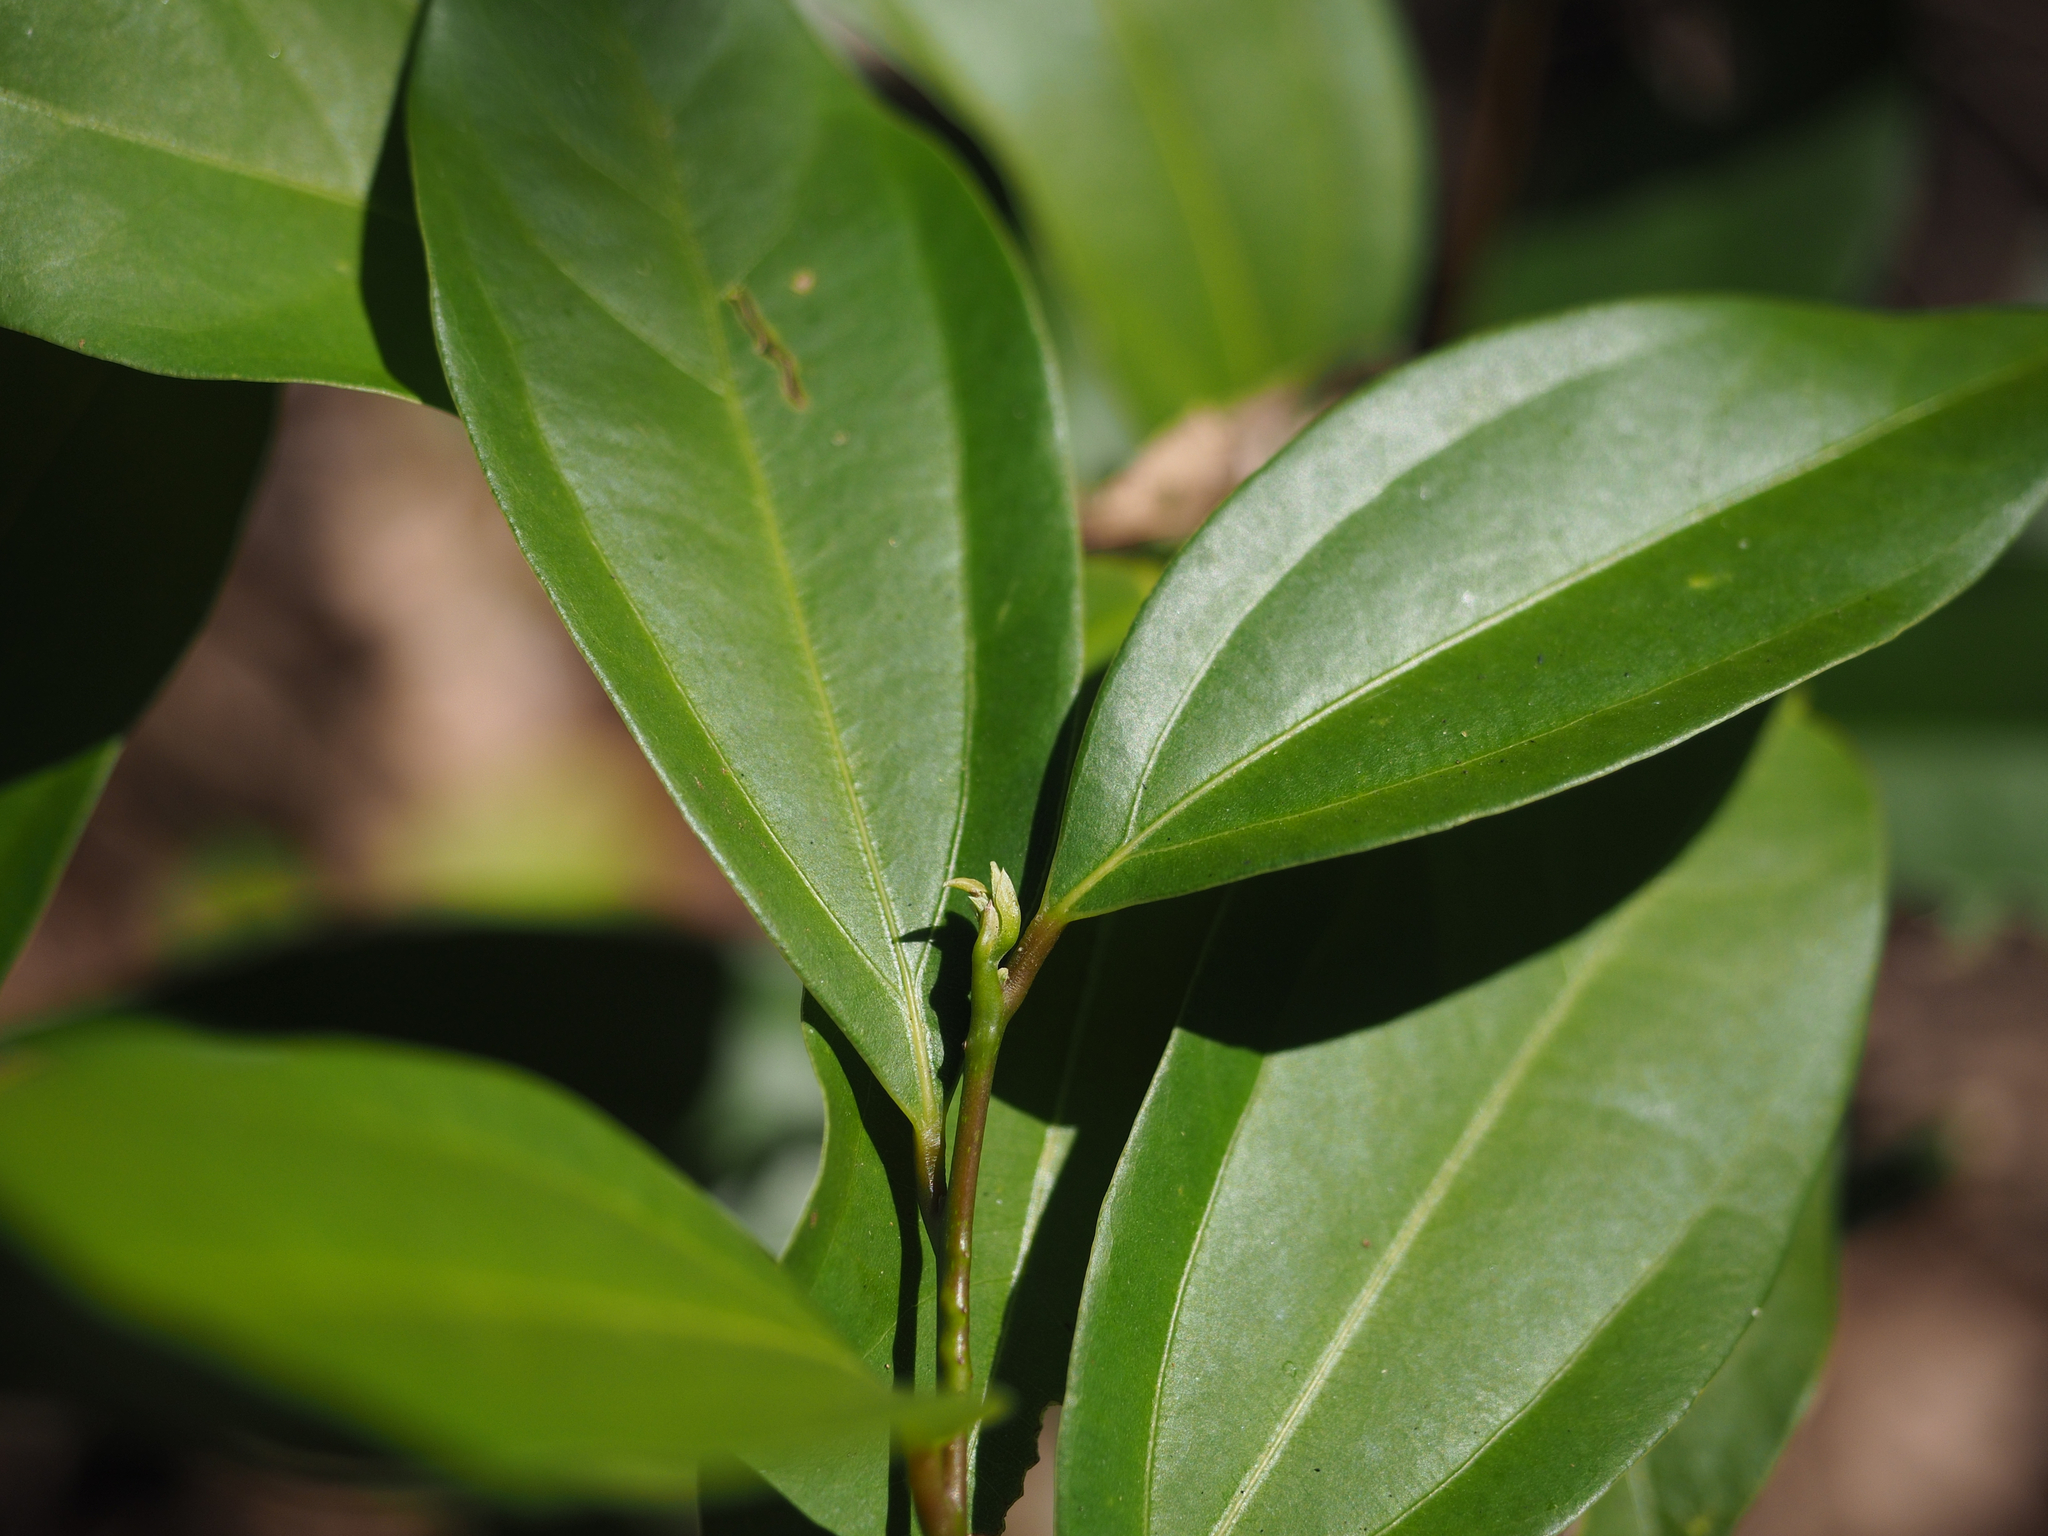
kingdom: Plantae
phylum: Tracheophyta
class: Magnoliopsida
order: Laurales
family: Lauraceae
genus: Cinnamomum
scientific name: Cinnamomum burmanni
